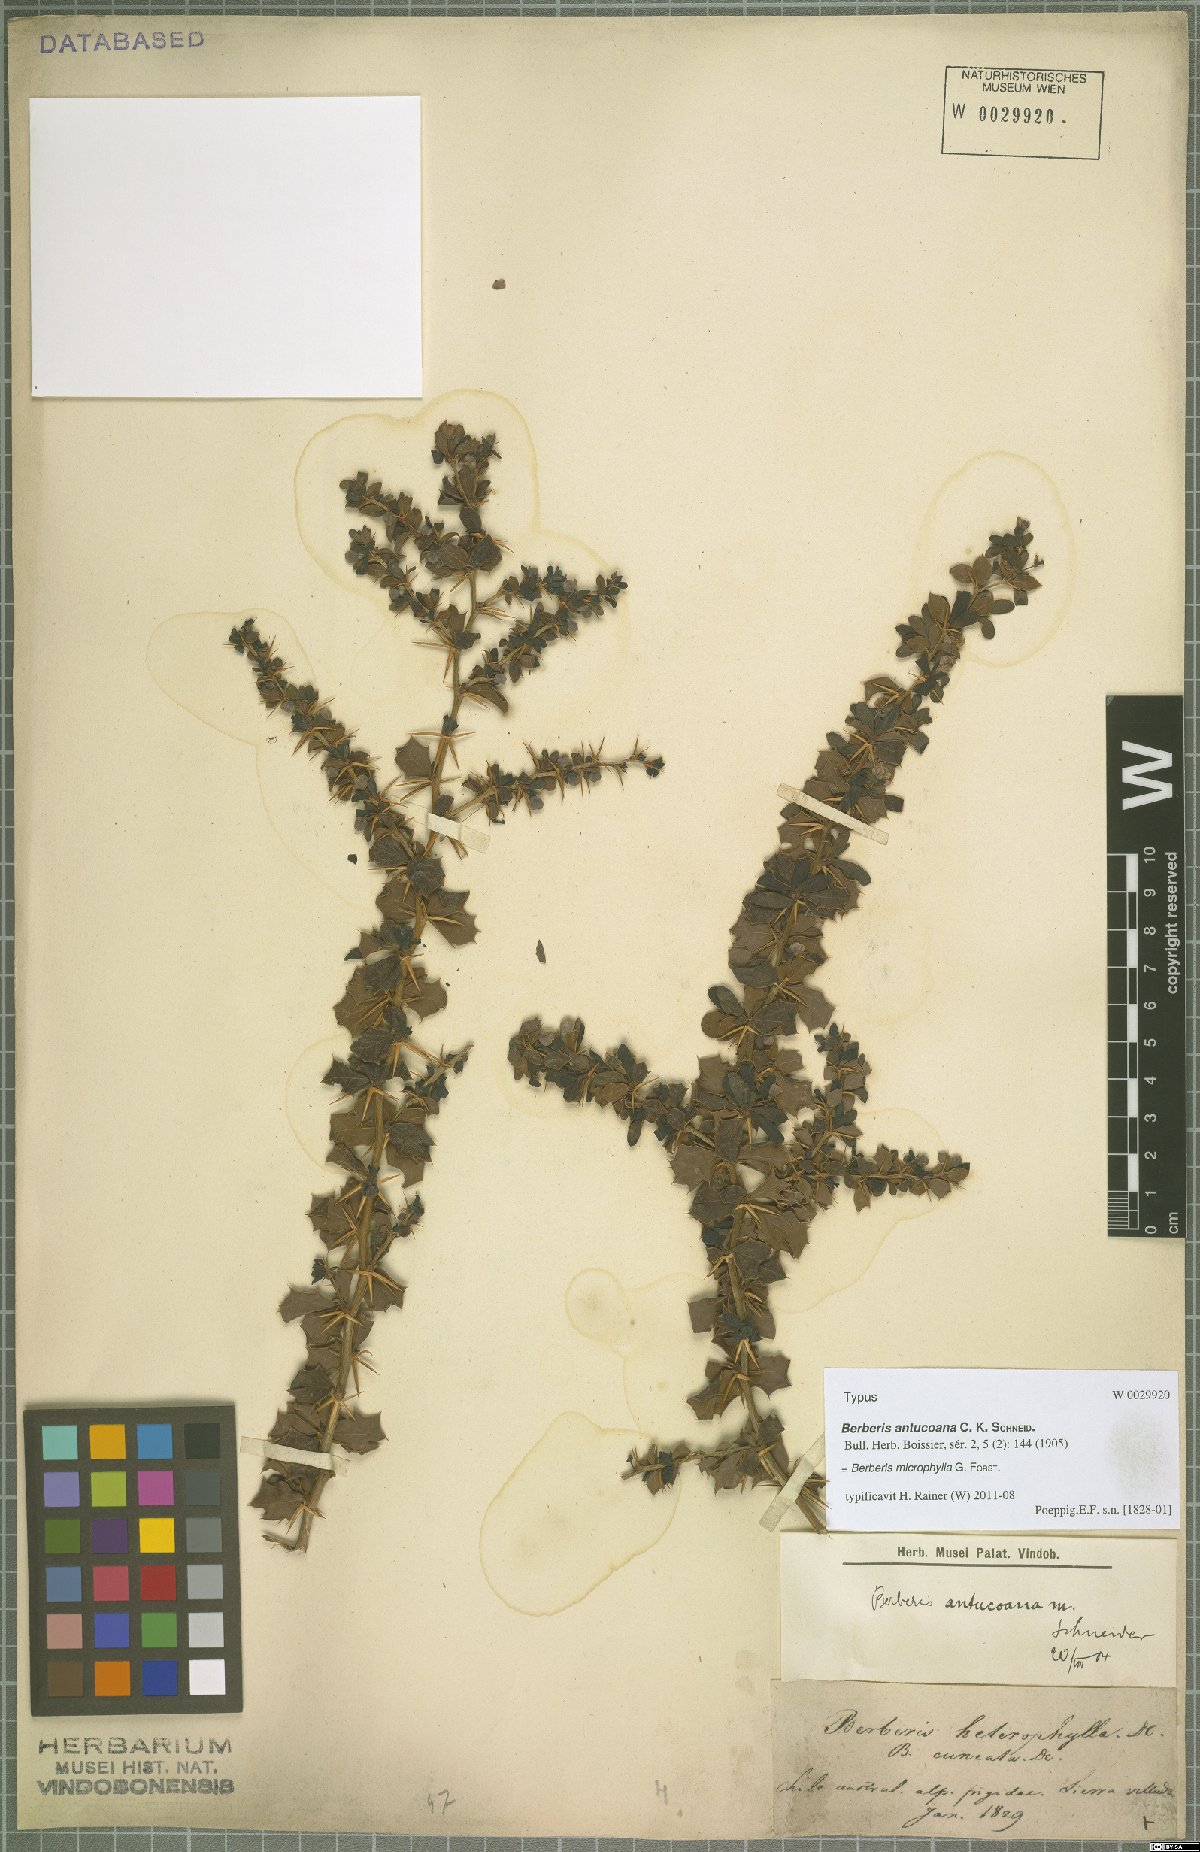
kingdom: Plantae
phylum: Tracheophyta
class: Magnoliopsida
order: Ranunculales
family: Berberidaceae
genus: Berberis
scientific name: Berberis microphylla
